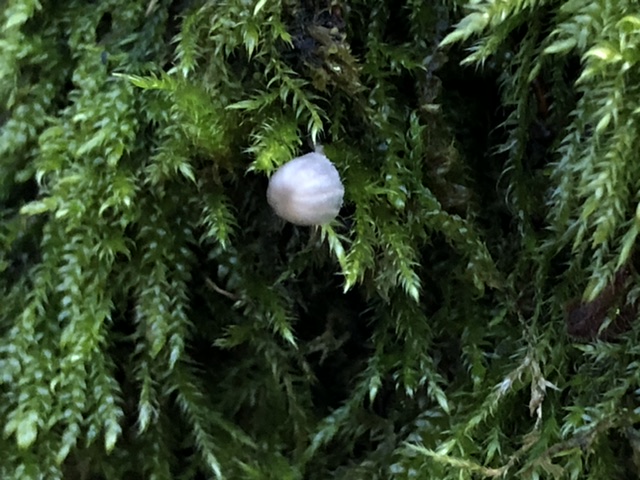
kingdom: Fungi
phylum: Basidiomycota
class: Agaricomycetes
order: Agaricales
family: Mycenaceae
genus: Mycena
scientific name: Mycena pseudocorticola
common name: gråblå bark-huesvamp
